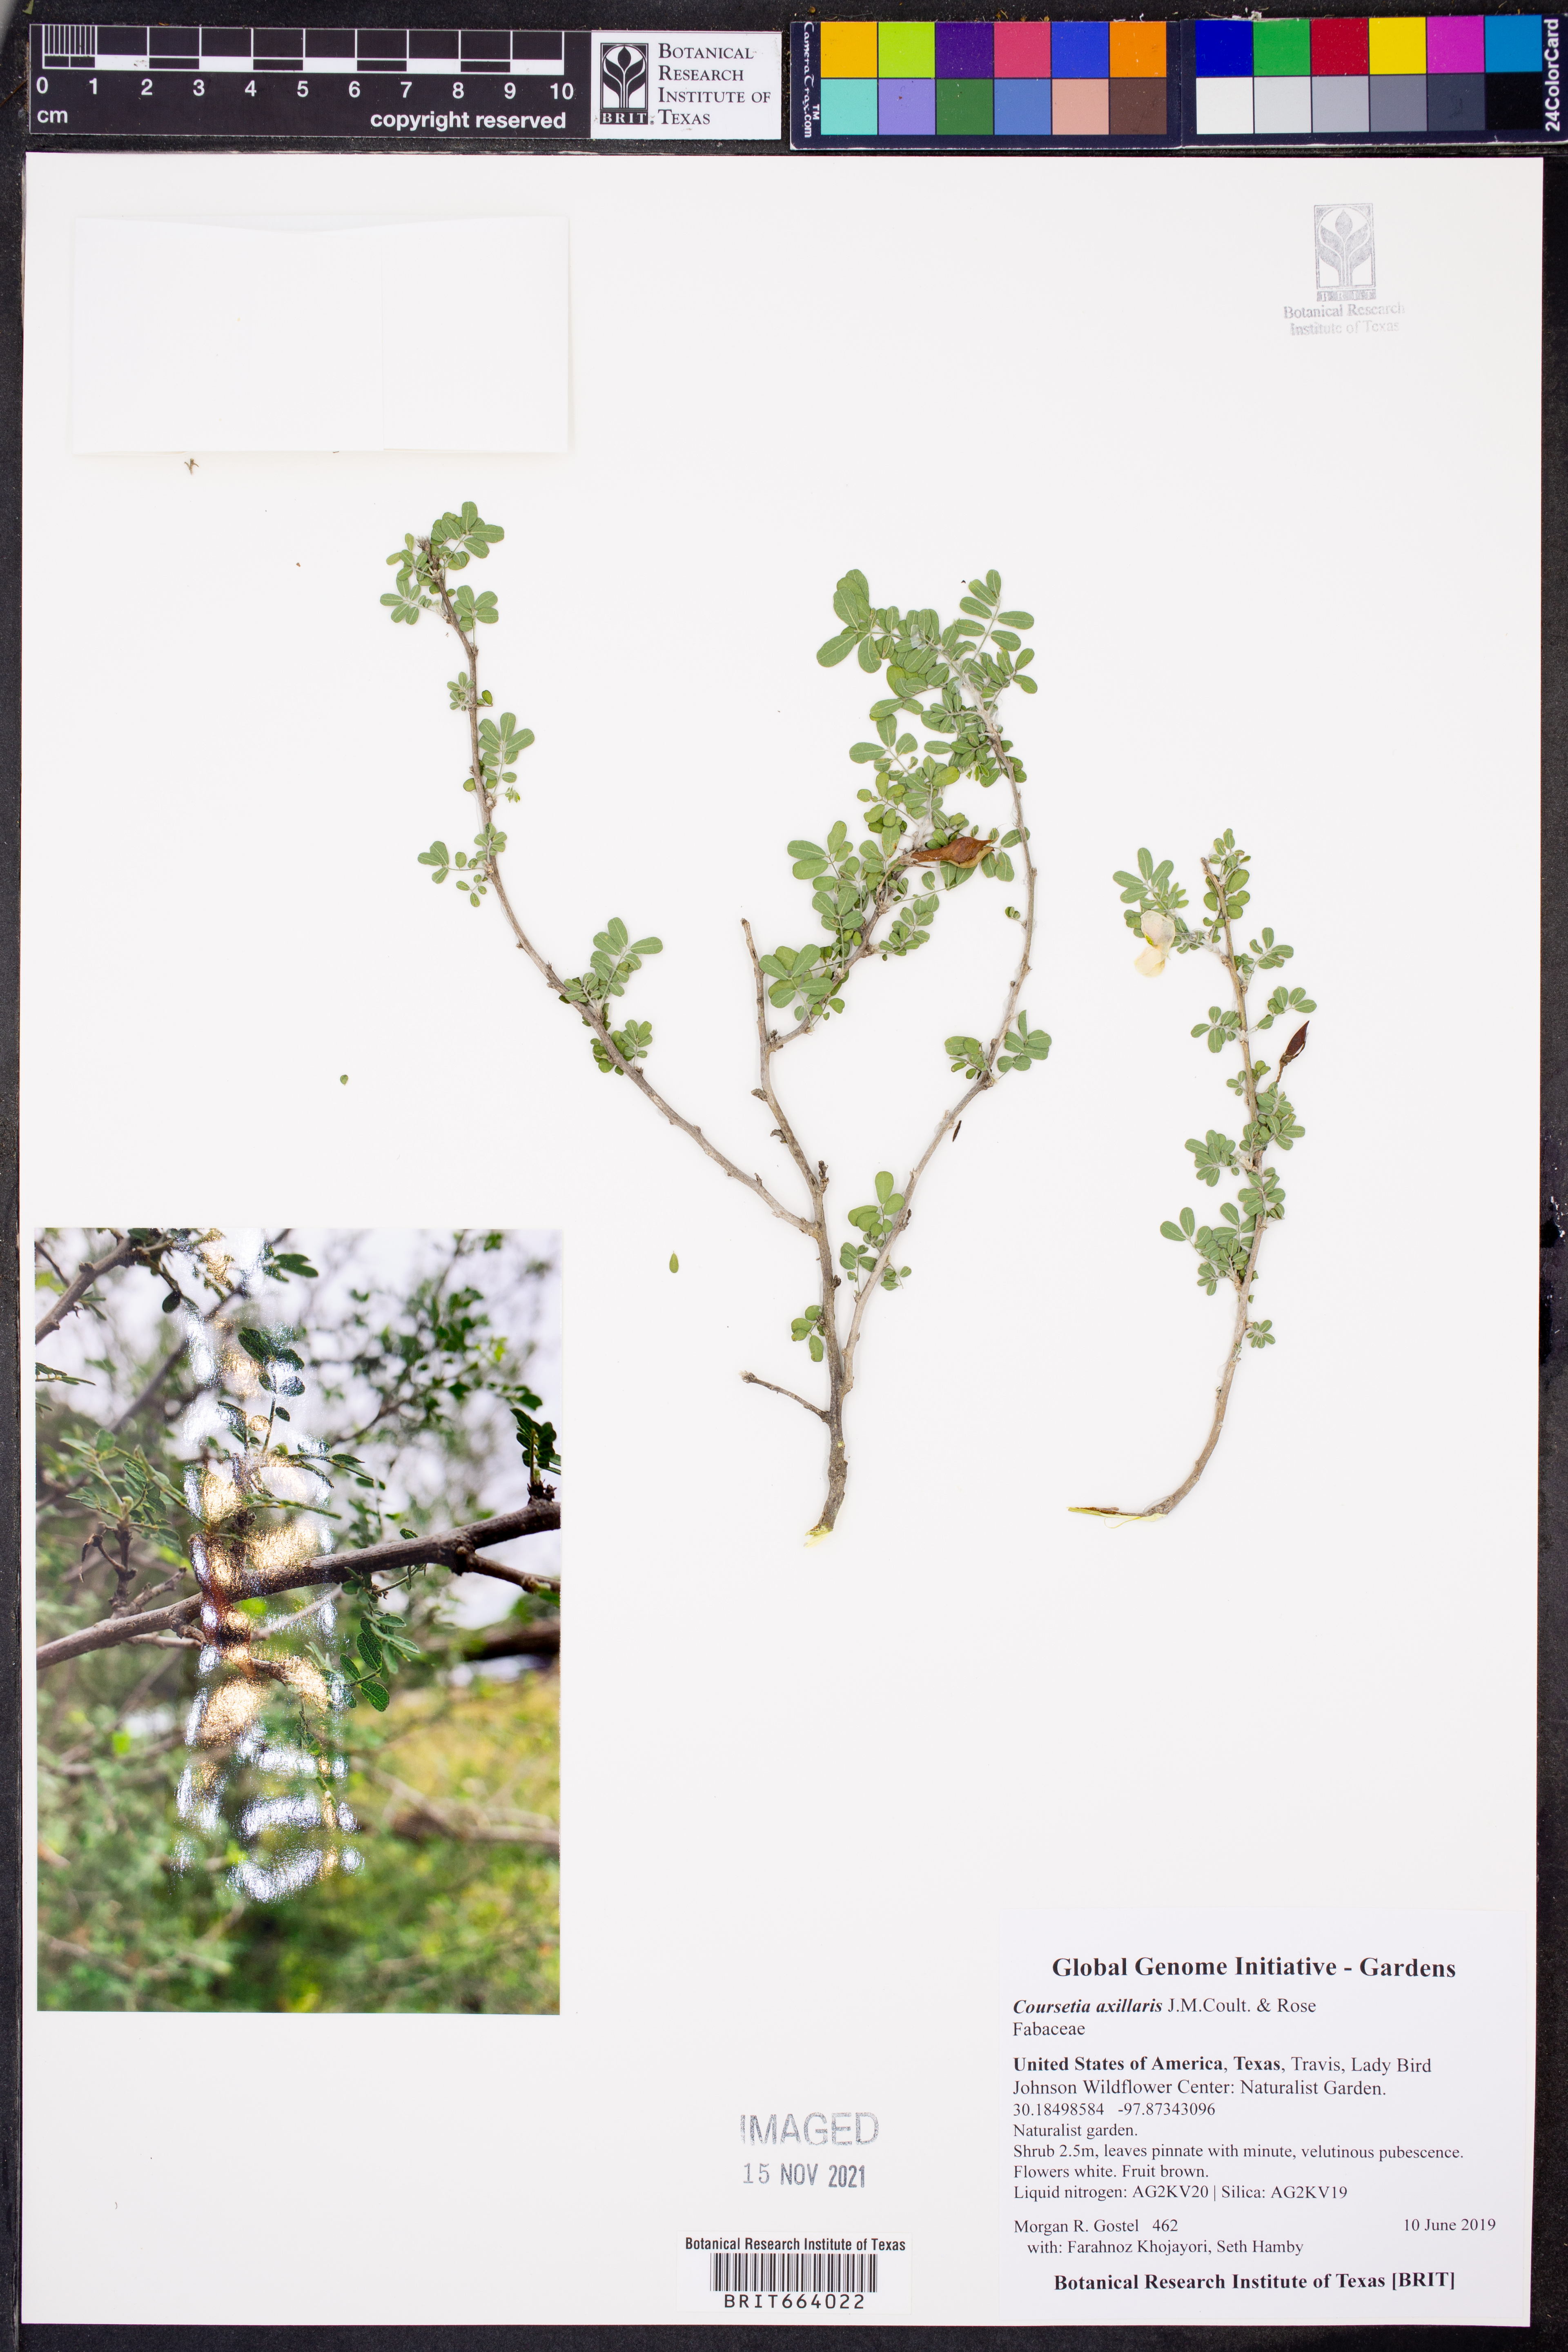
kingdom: Plantae
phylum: Tracheophyta
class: Magnoliopsida
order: Fabales
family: Fabaceae
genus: Coursetia
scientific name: Coursetia axillaris
